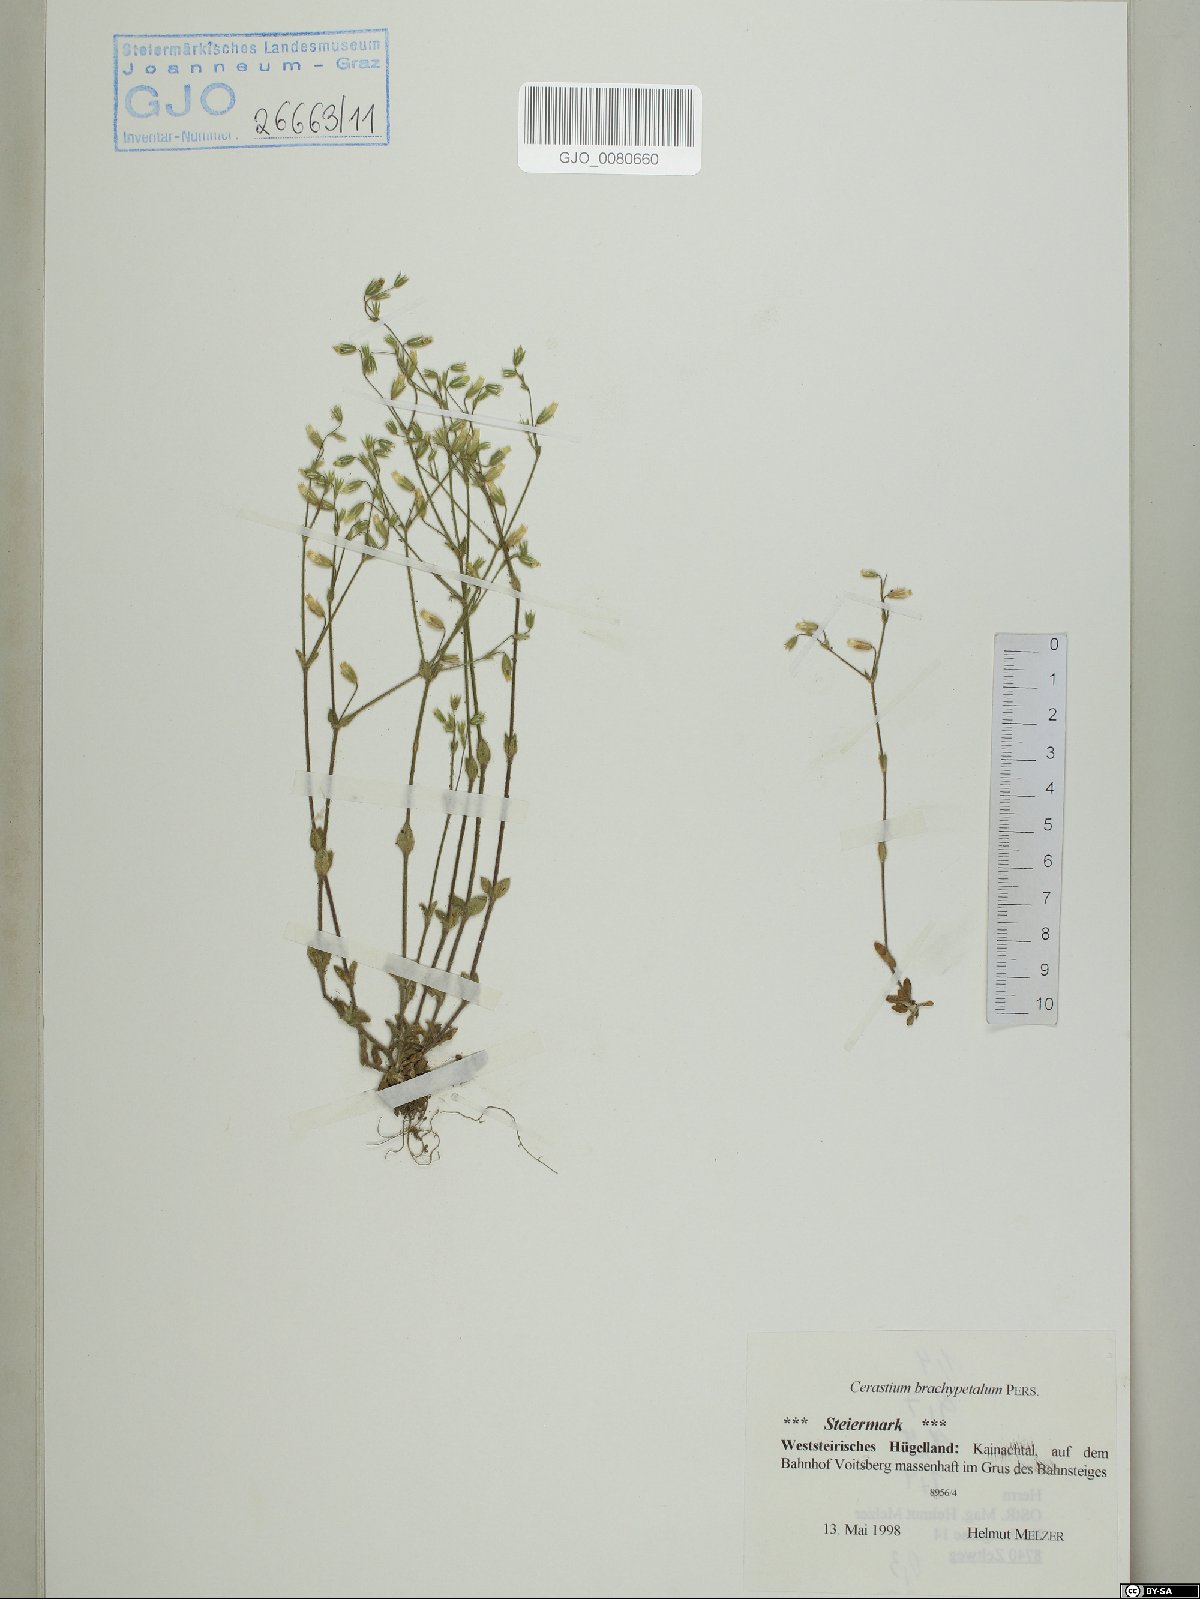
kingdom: Plantae
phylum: Tracheophyta
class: Magnoliopsida
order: Caryophyllales
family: Caryophyllaceae
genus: Cerastium
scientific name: Cerastium brachypetalum
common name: Grey mouse-ear
